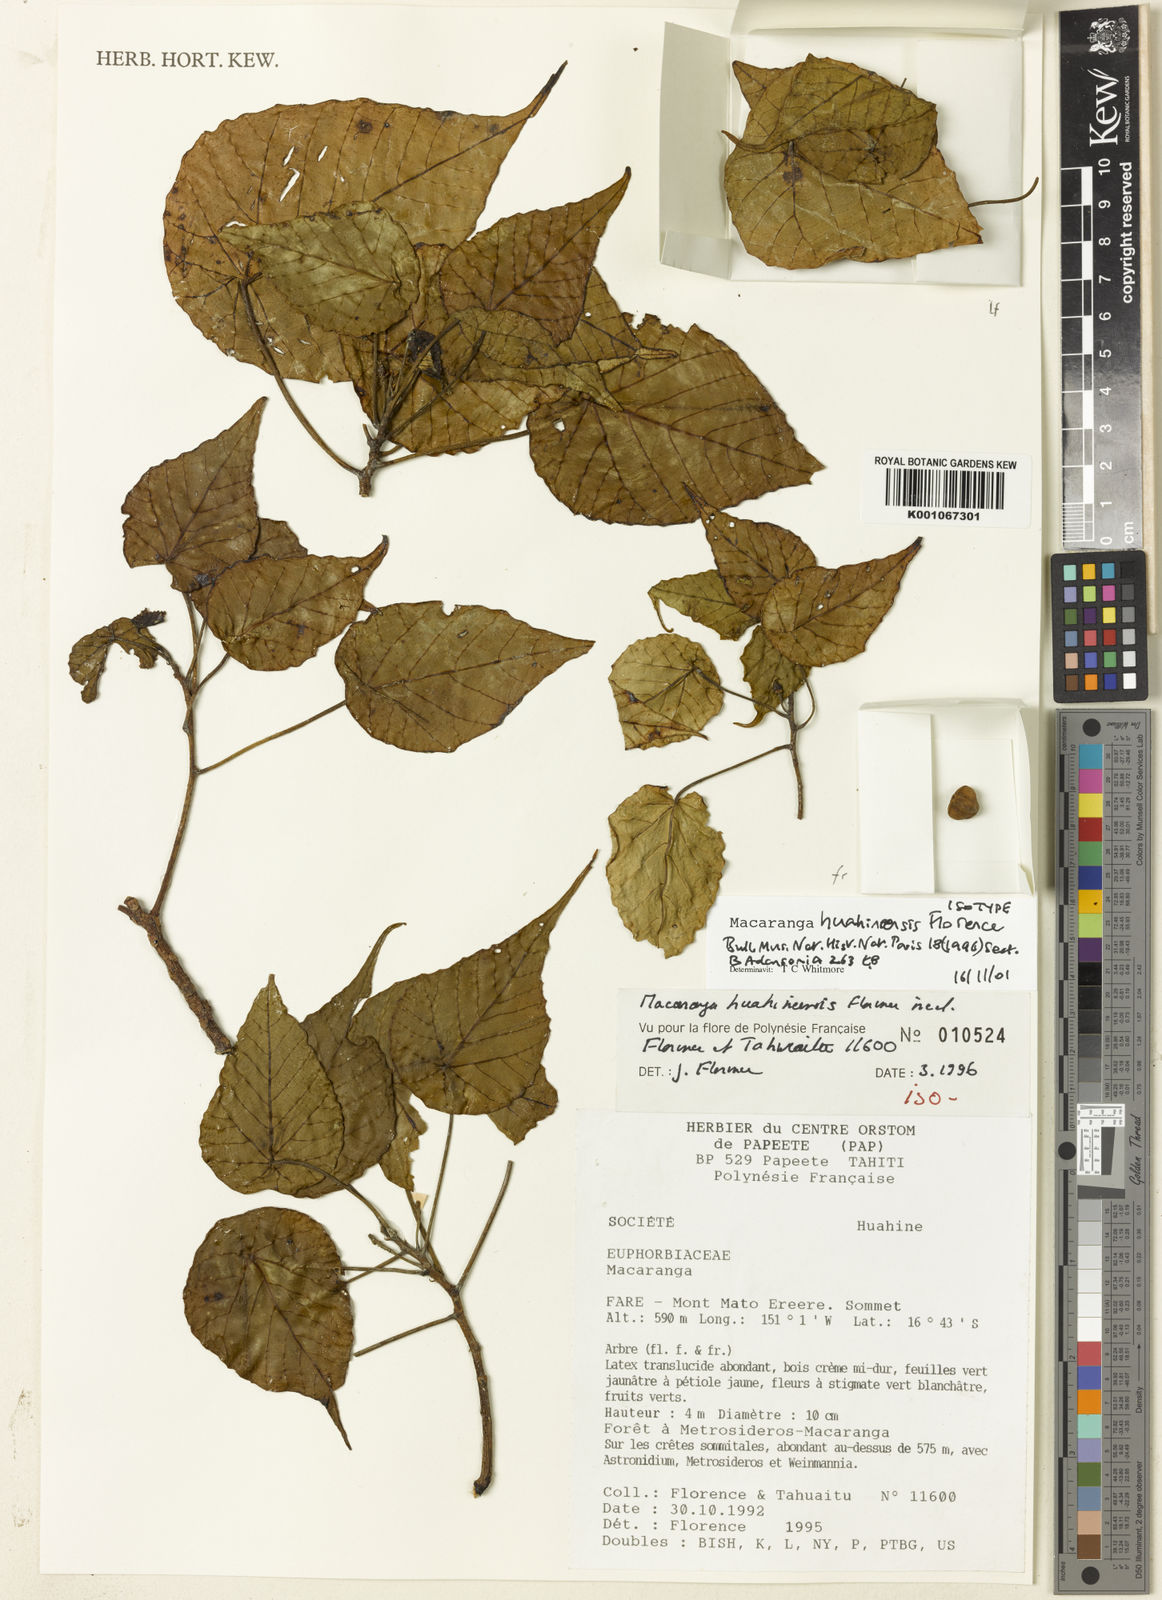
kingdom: Plantae
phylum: Tracheophyta
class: Magnoliopsida
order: Malpighiales
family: Euphorbiaceae
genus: Macaranga
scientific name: Macaranga huahineensis
